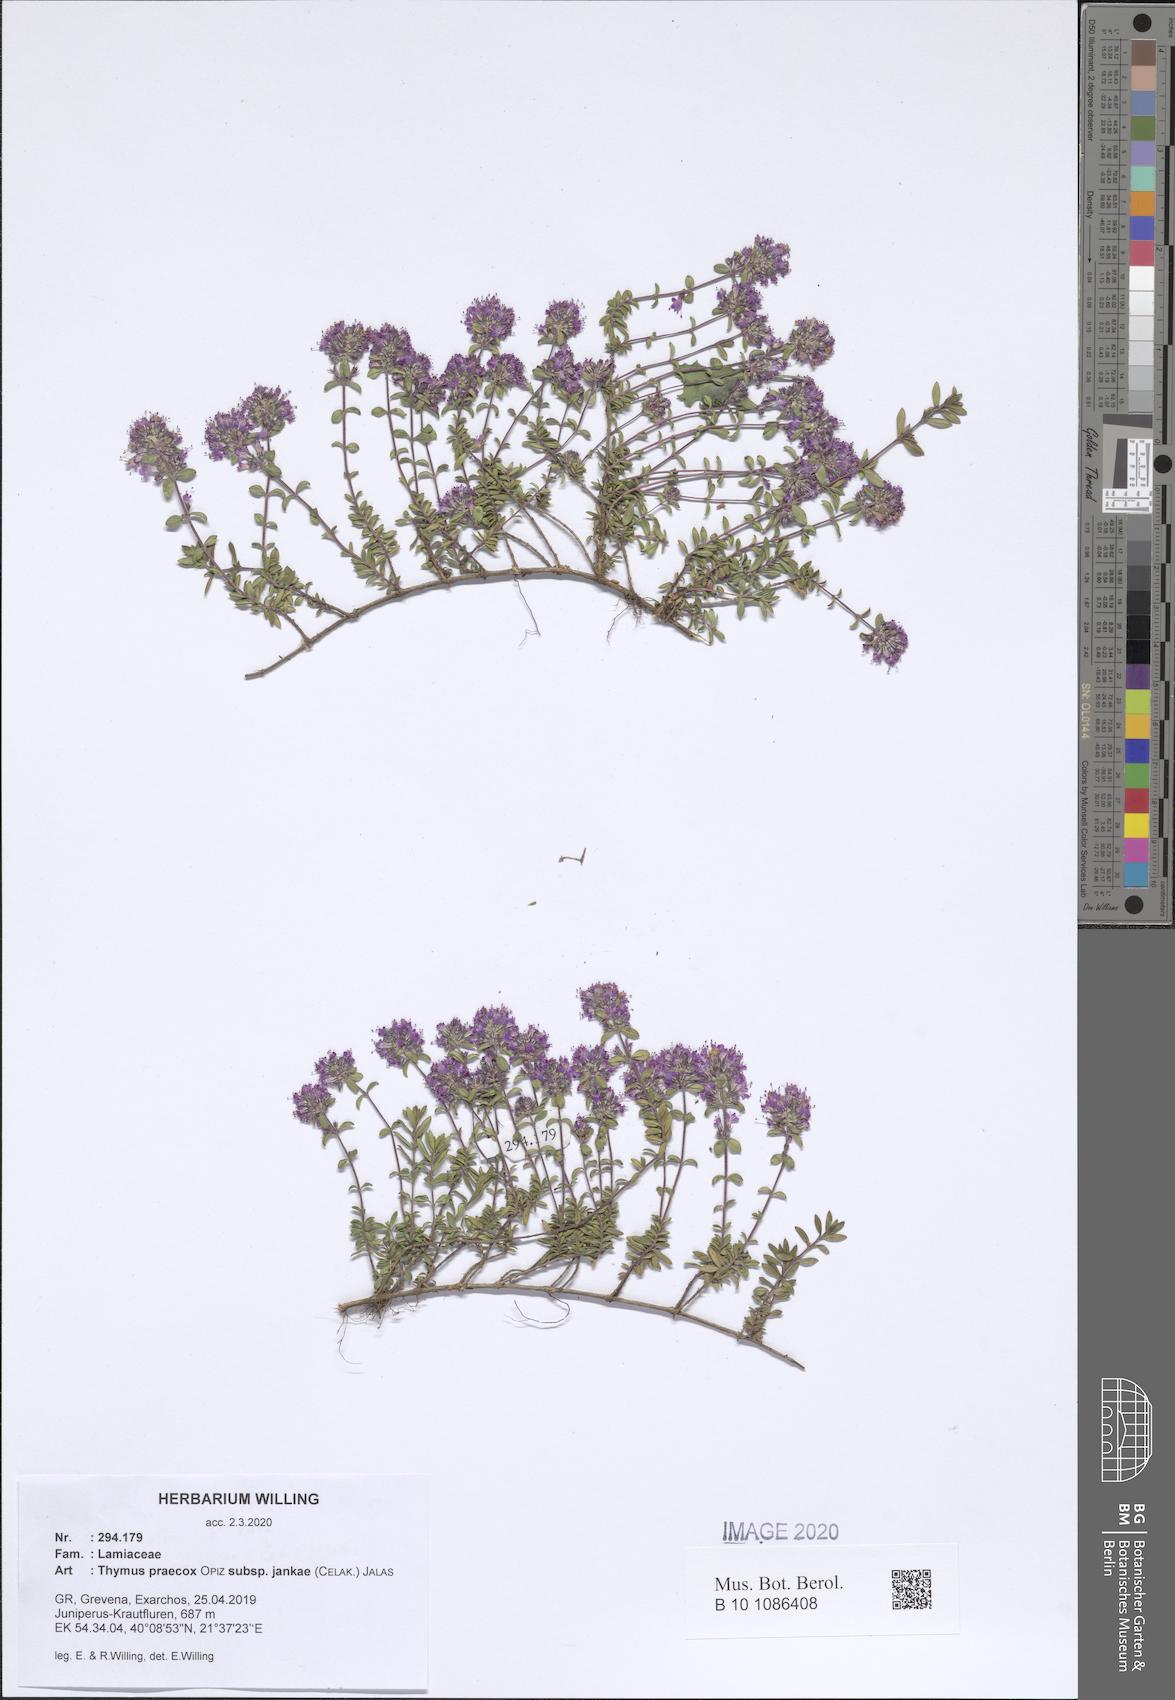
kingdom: Plantae
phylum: Tracheophyta
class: Magnoliopsida
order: Lamiales
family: Lamiaceae
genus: Thymus
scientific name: Thymus jankae
